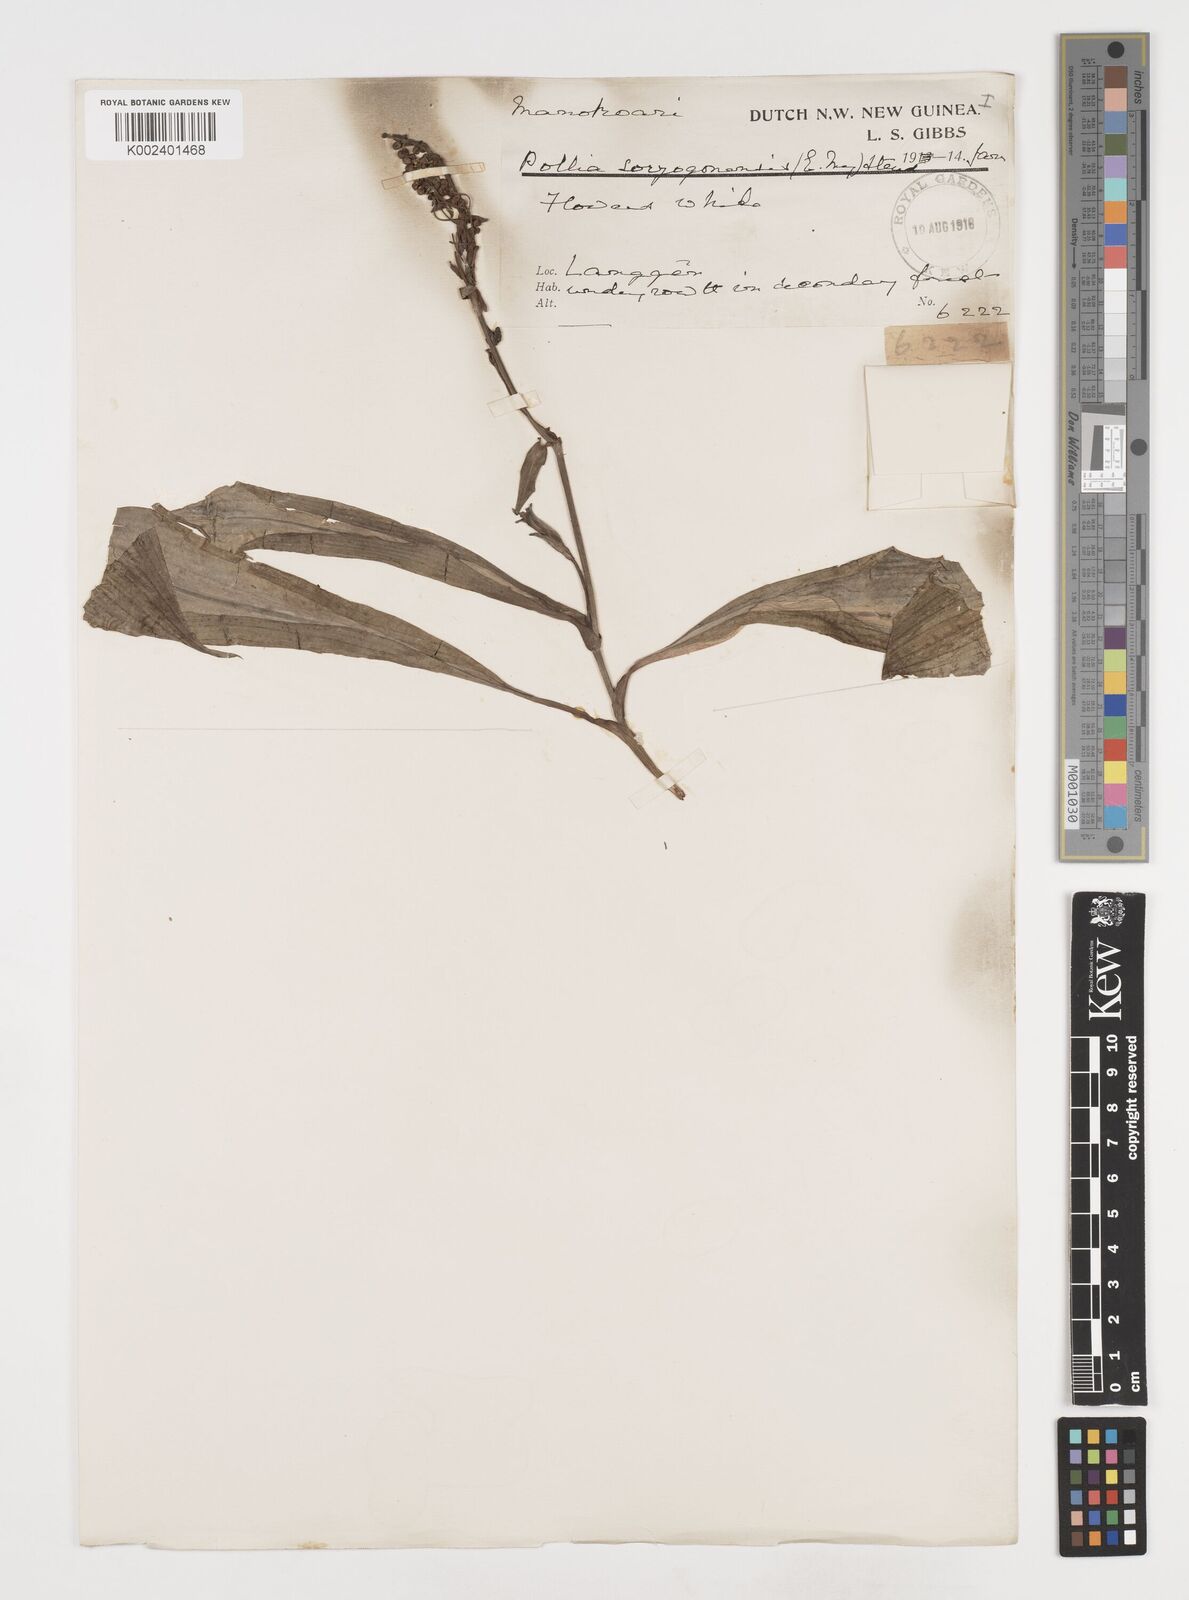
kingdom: Plantae
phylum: Tracheophyta
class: Liliopsida
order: Commelinales
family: Commelinaceae
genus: Pollia
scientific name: Pollia secundiflora
